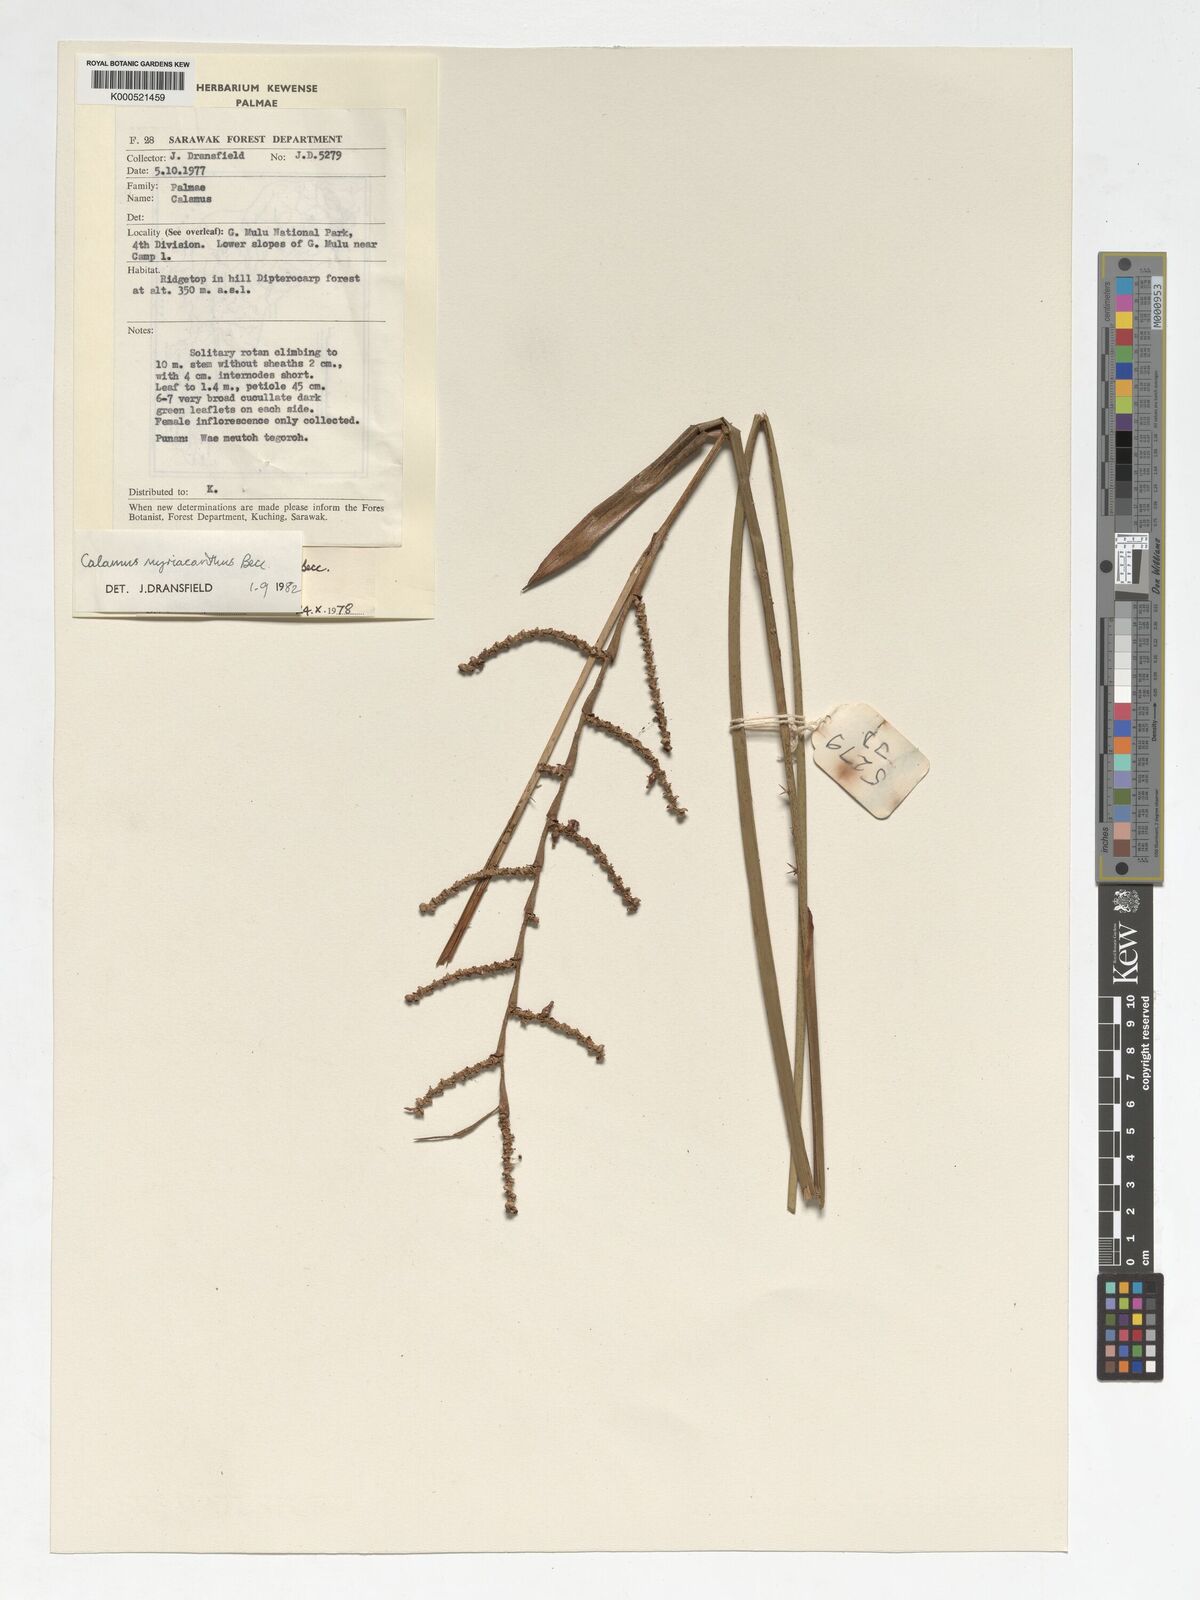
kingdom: Plantae
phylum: Tracheophyta
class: Liliopsida
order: Arecales
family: Arecaceae
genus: Calamus
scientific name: Calamus myriacanthus
